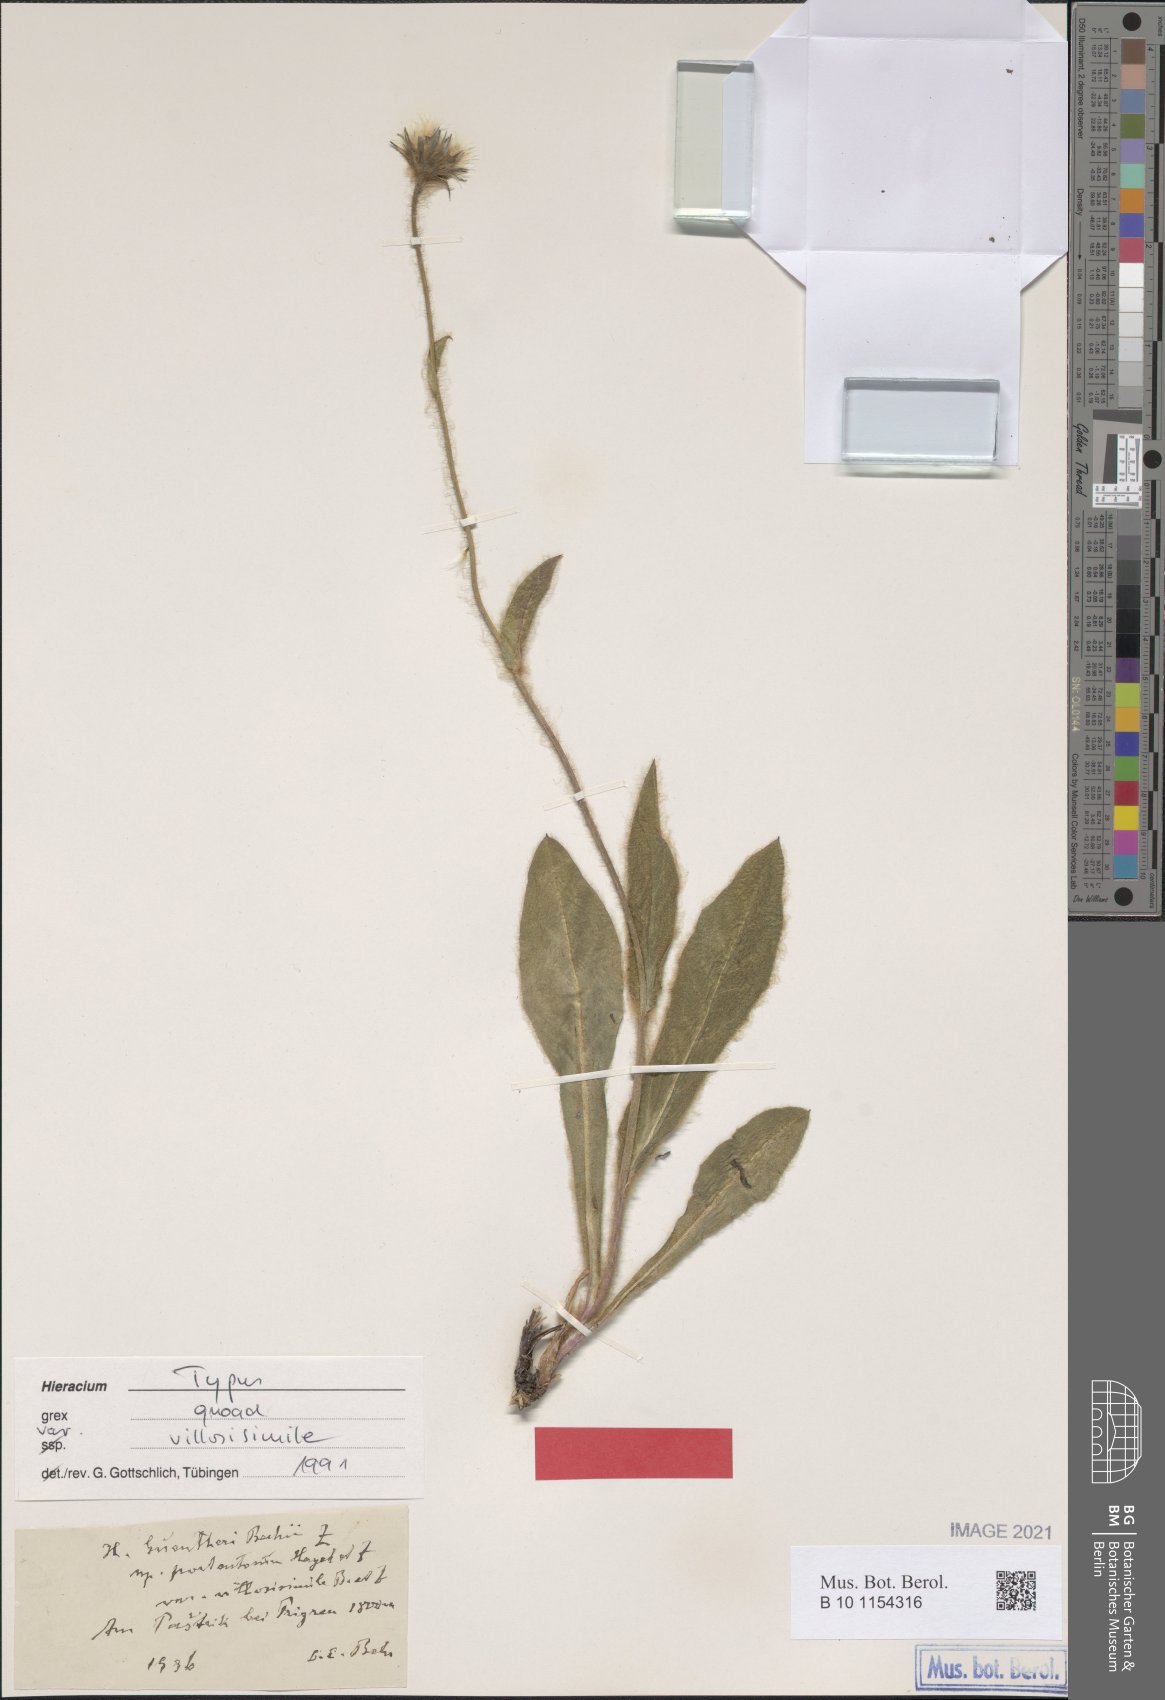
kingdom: Plantae
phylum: Tracheophyta
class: Magnoliopsida
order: Asterales
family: Asteraceae
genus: Hieracium
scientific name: Hieracium guentheri-beckii
